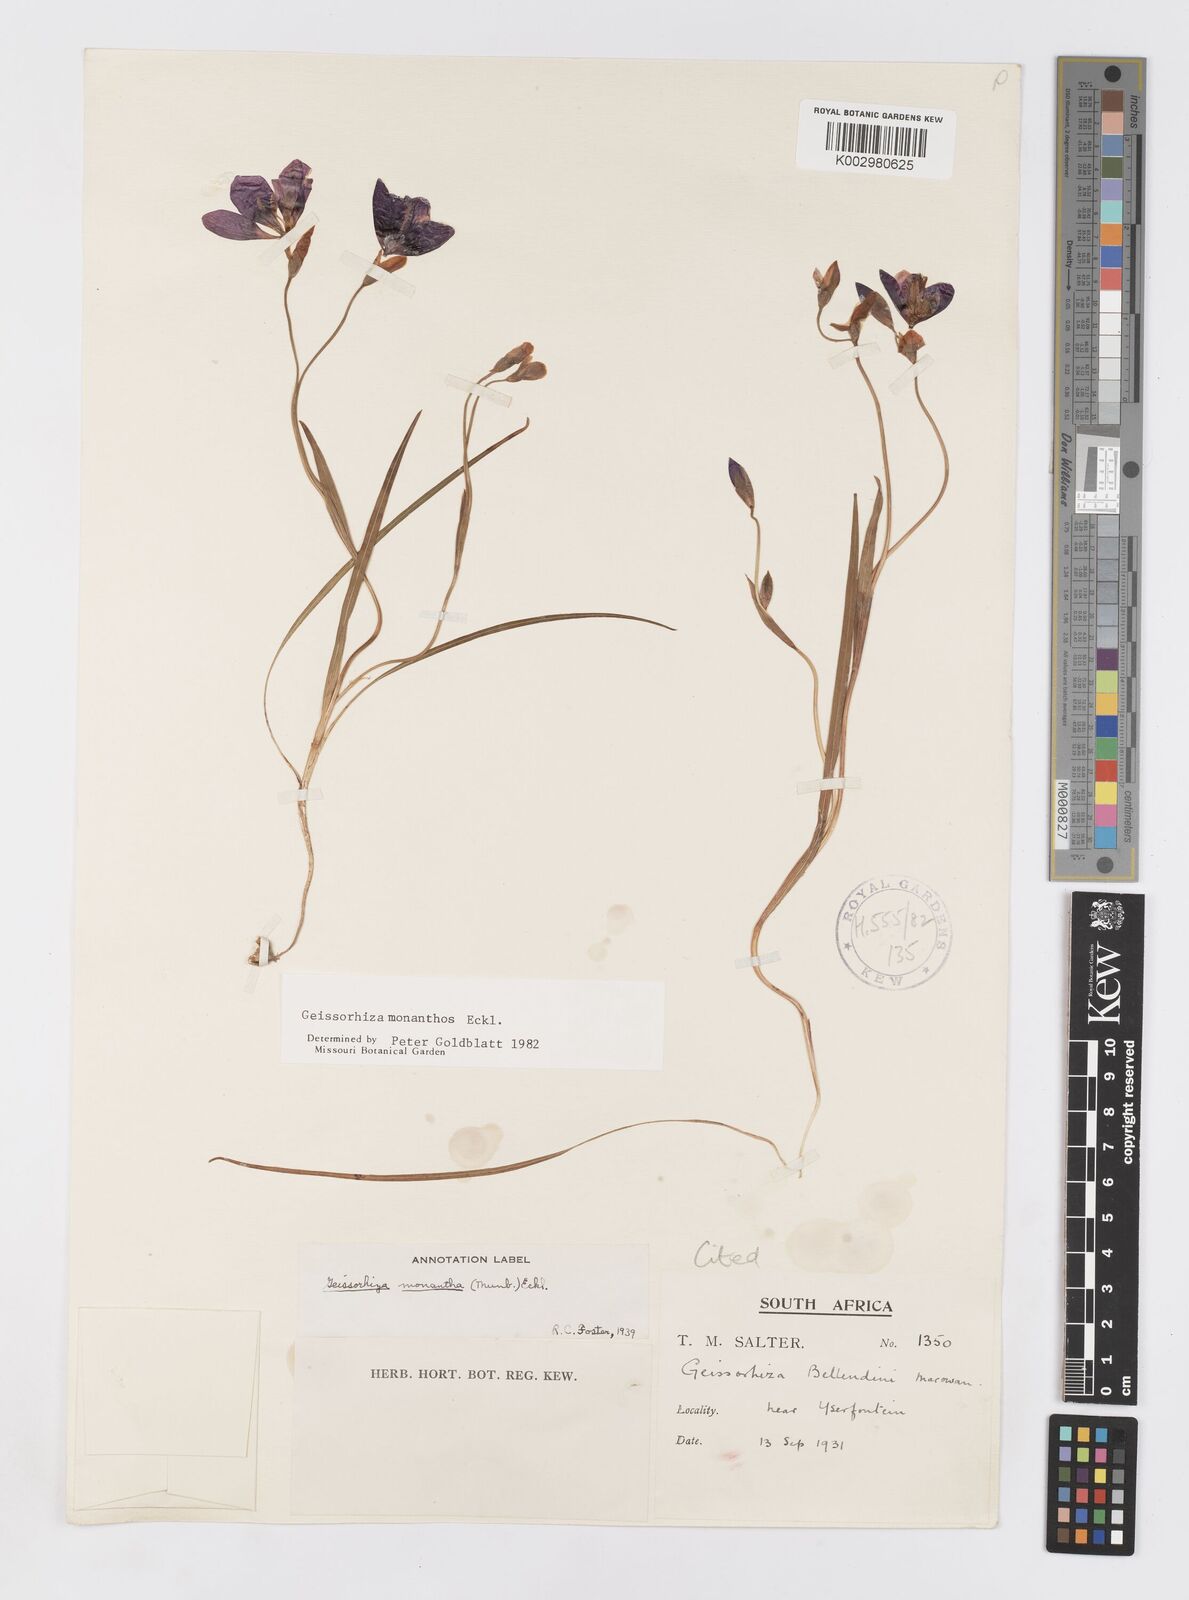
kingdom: Plantae
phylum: Tracheophyta
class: Liliopsida
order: Asparagales
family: Iridaceae
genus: Geissorhiza
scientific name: Geissorhiza monanthos
